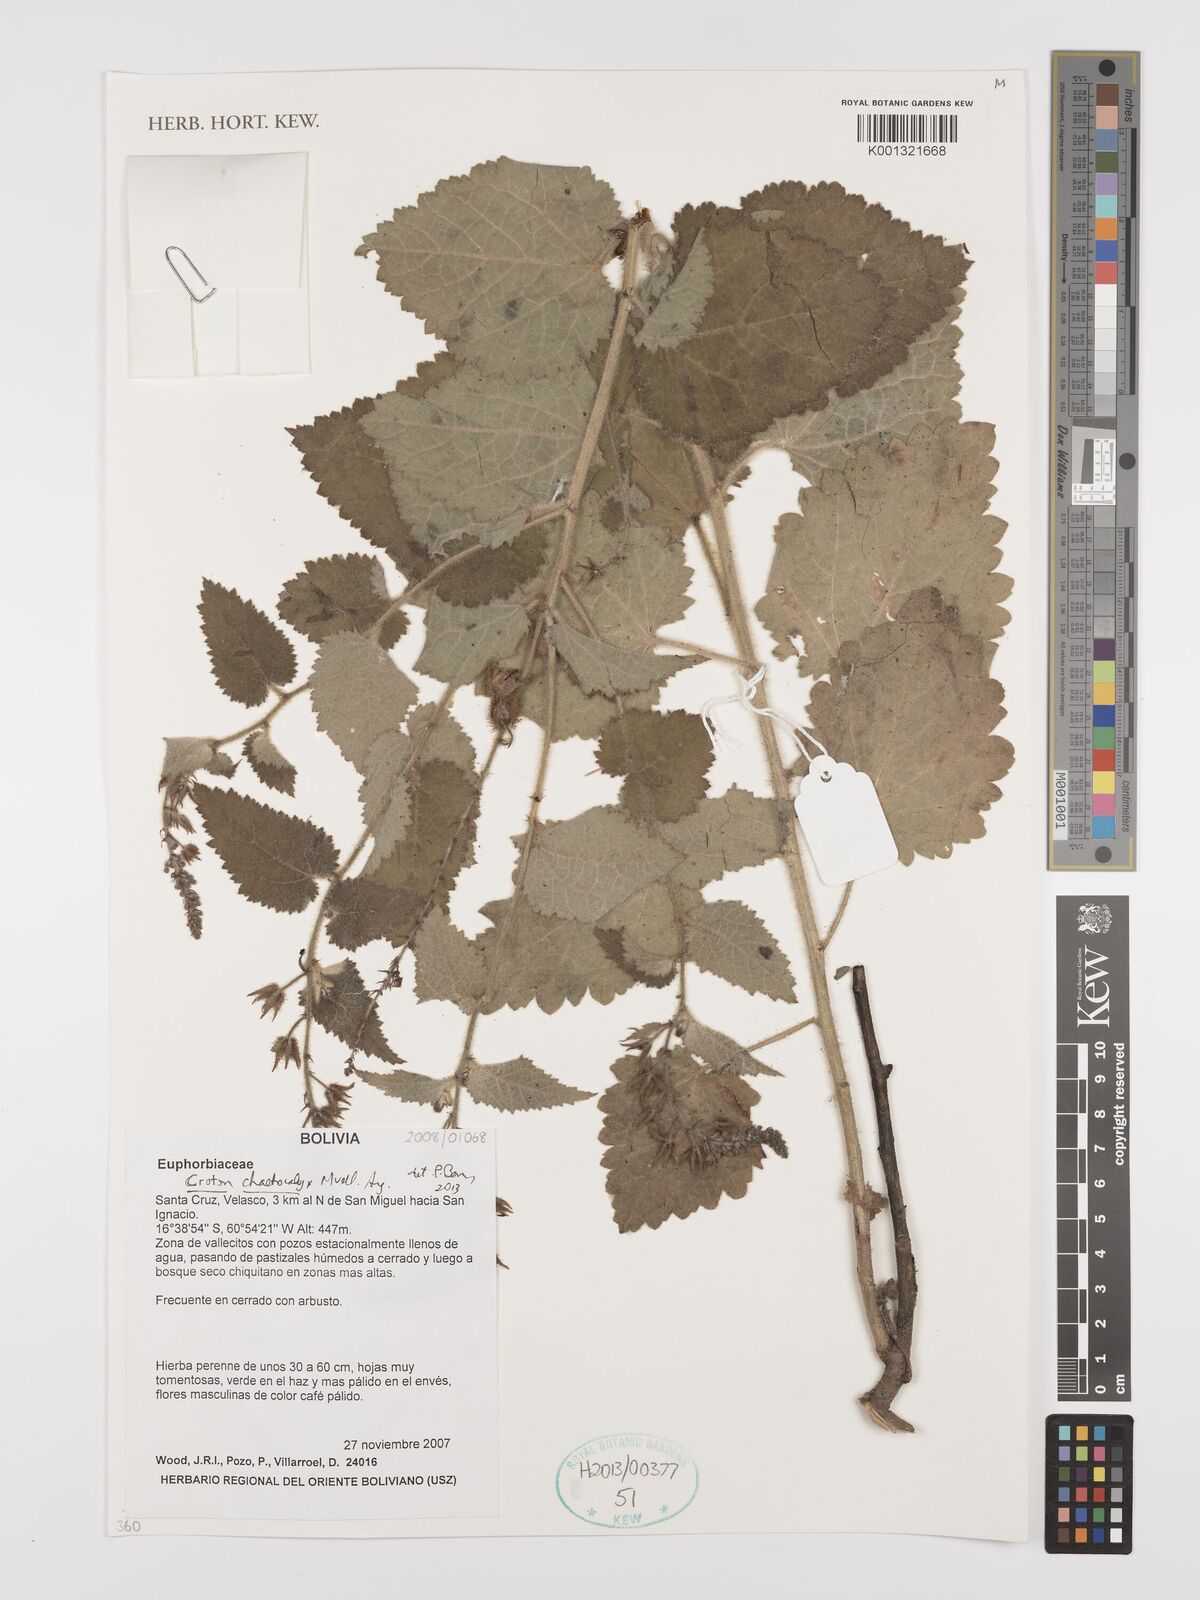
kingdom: Plantae
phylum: Tracheophyta
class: Magnoliopsida
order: Malpighiales
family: Euphorbiaceae
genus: Croton
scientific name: Croton catariae
